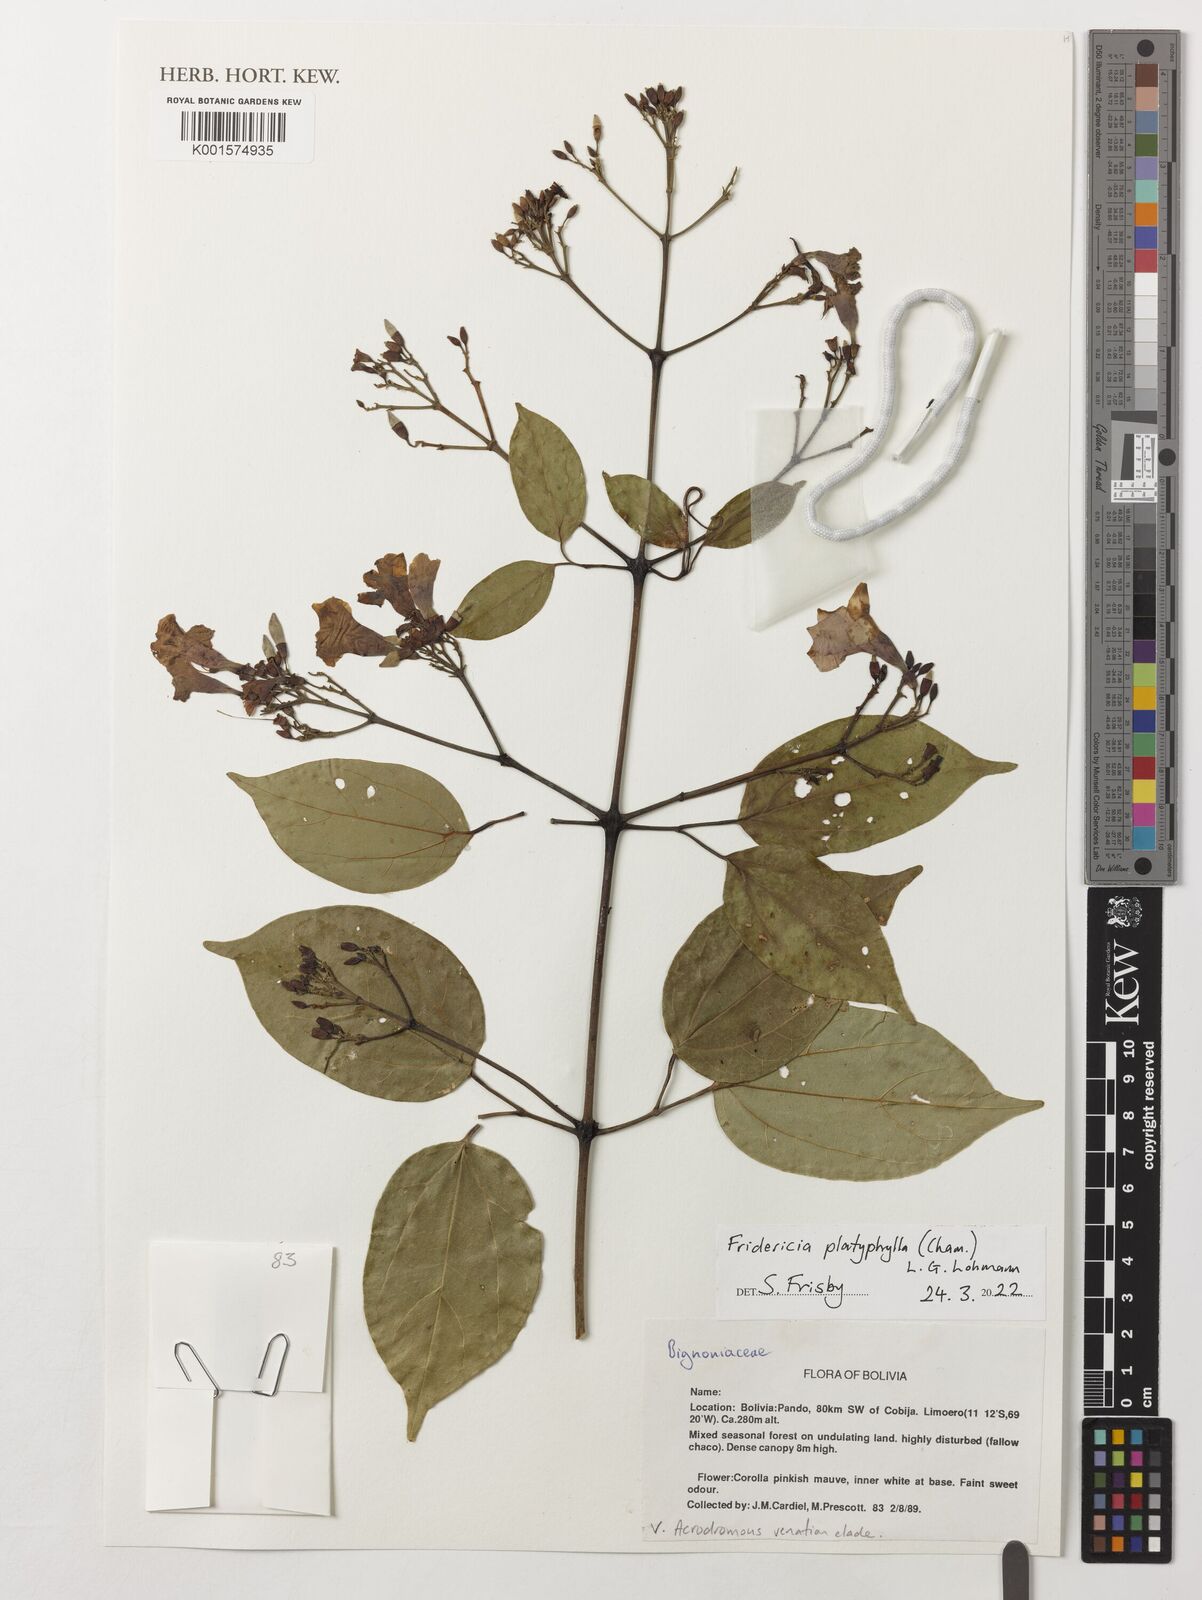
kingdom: Plantae
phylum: Tracheophyta
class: Magnoliopsida
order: Lamiales
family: Bignoniaceae
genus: Fridericia
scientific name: Fridericia platyphylla
